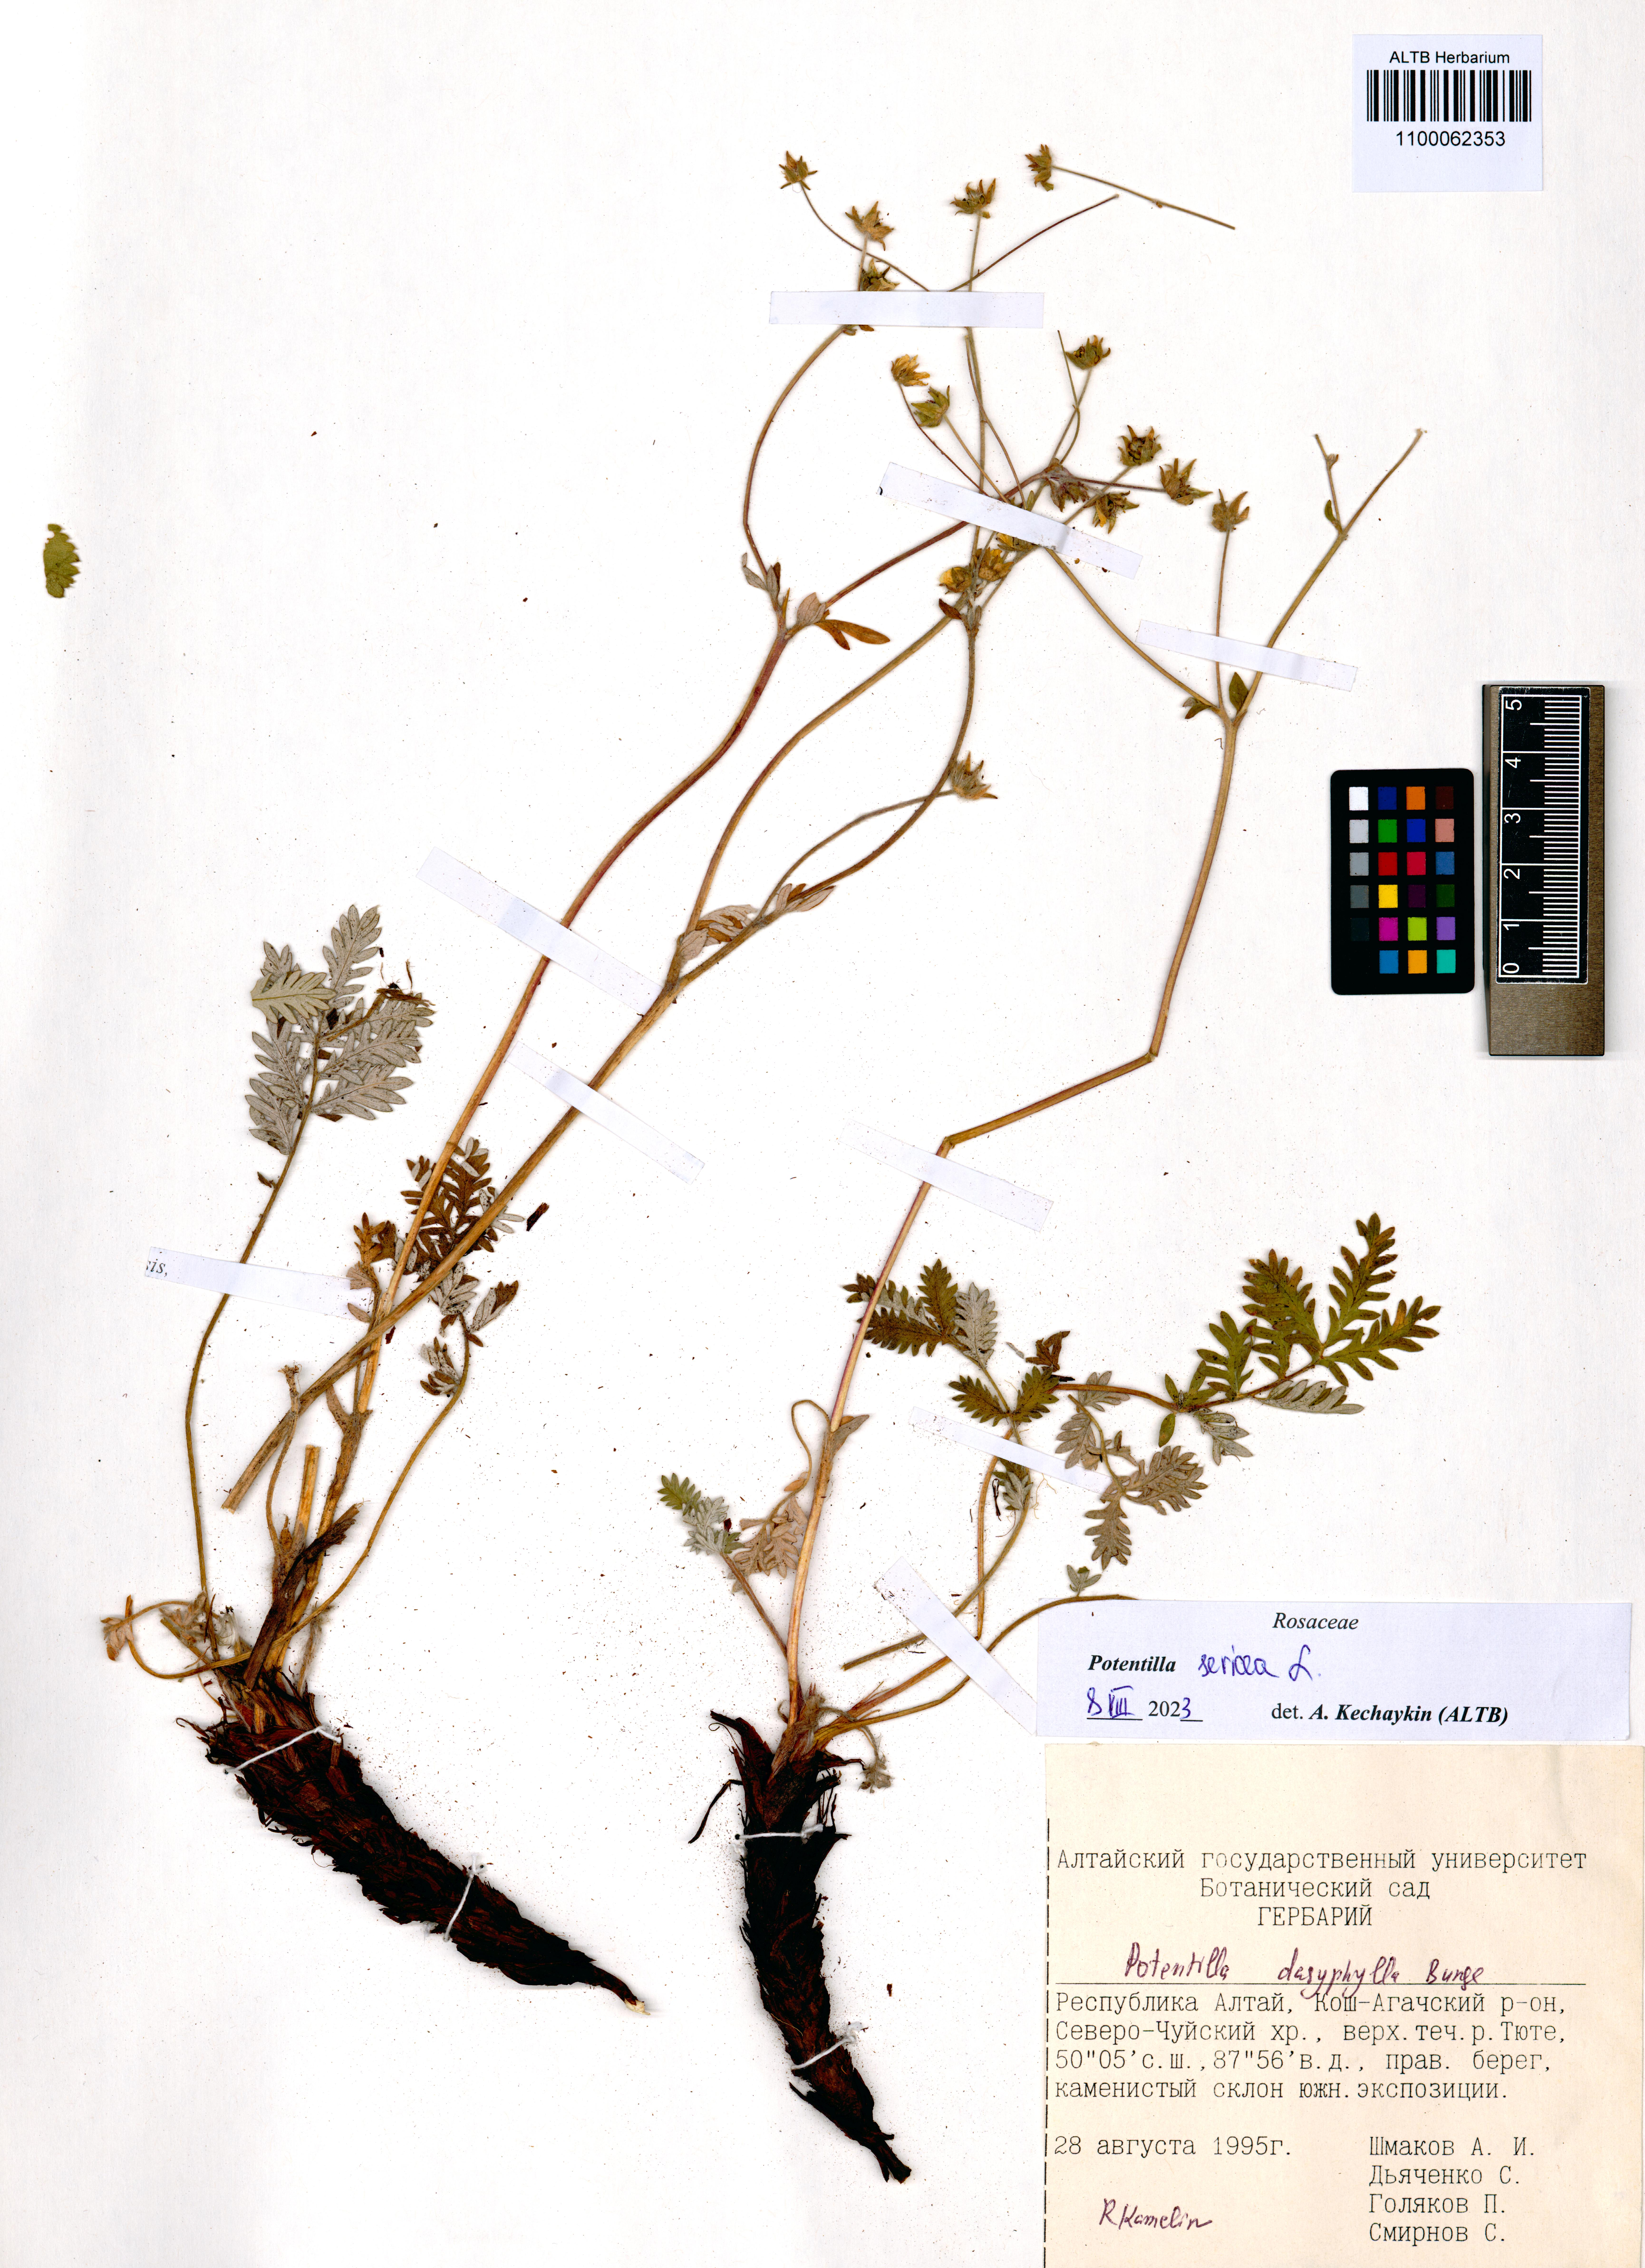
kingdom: Plantae
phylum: Tracheophyta
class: Magnoliopsida
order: Rosales
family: Rosaceae
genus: Potentilla
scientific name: Potentilla sericea
